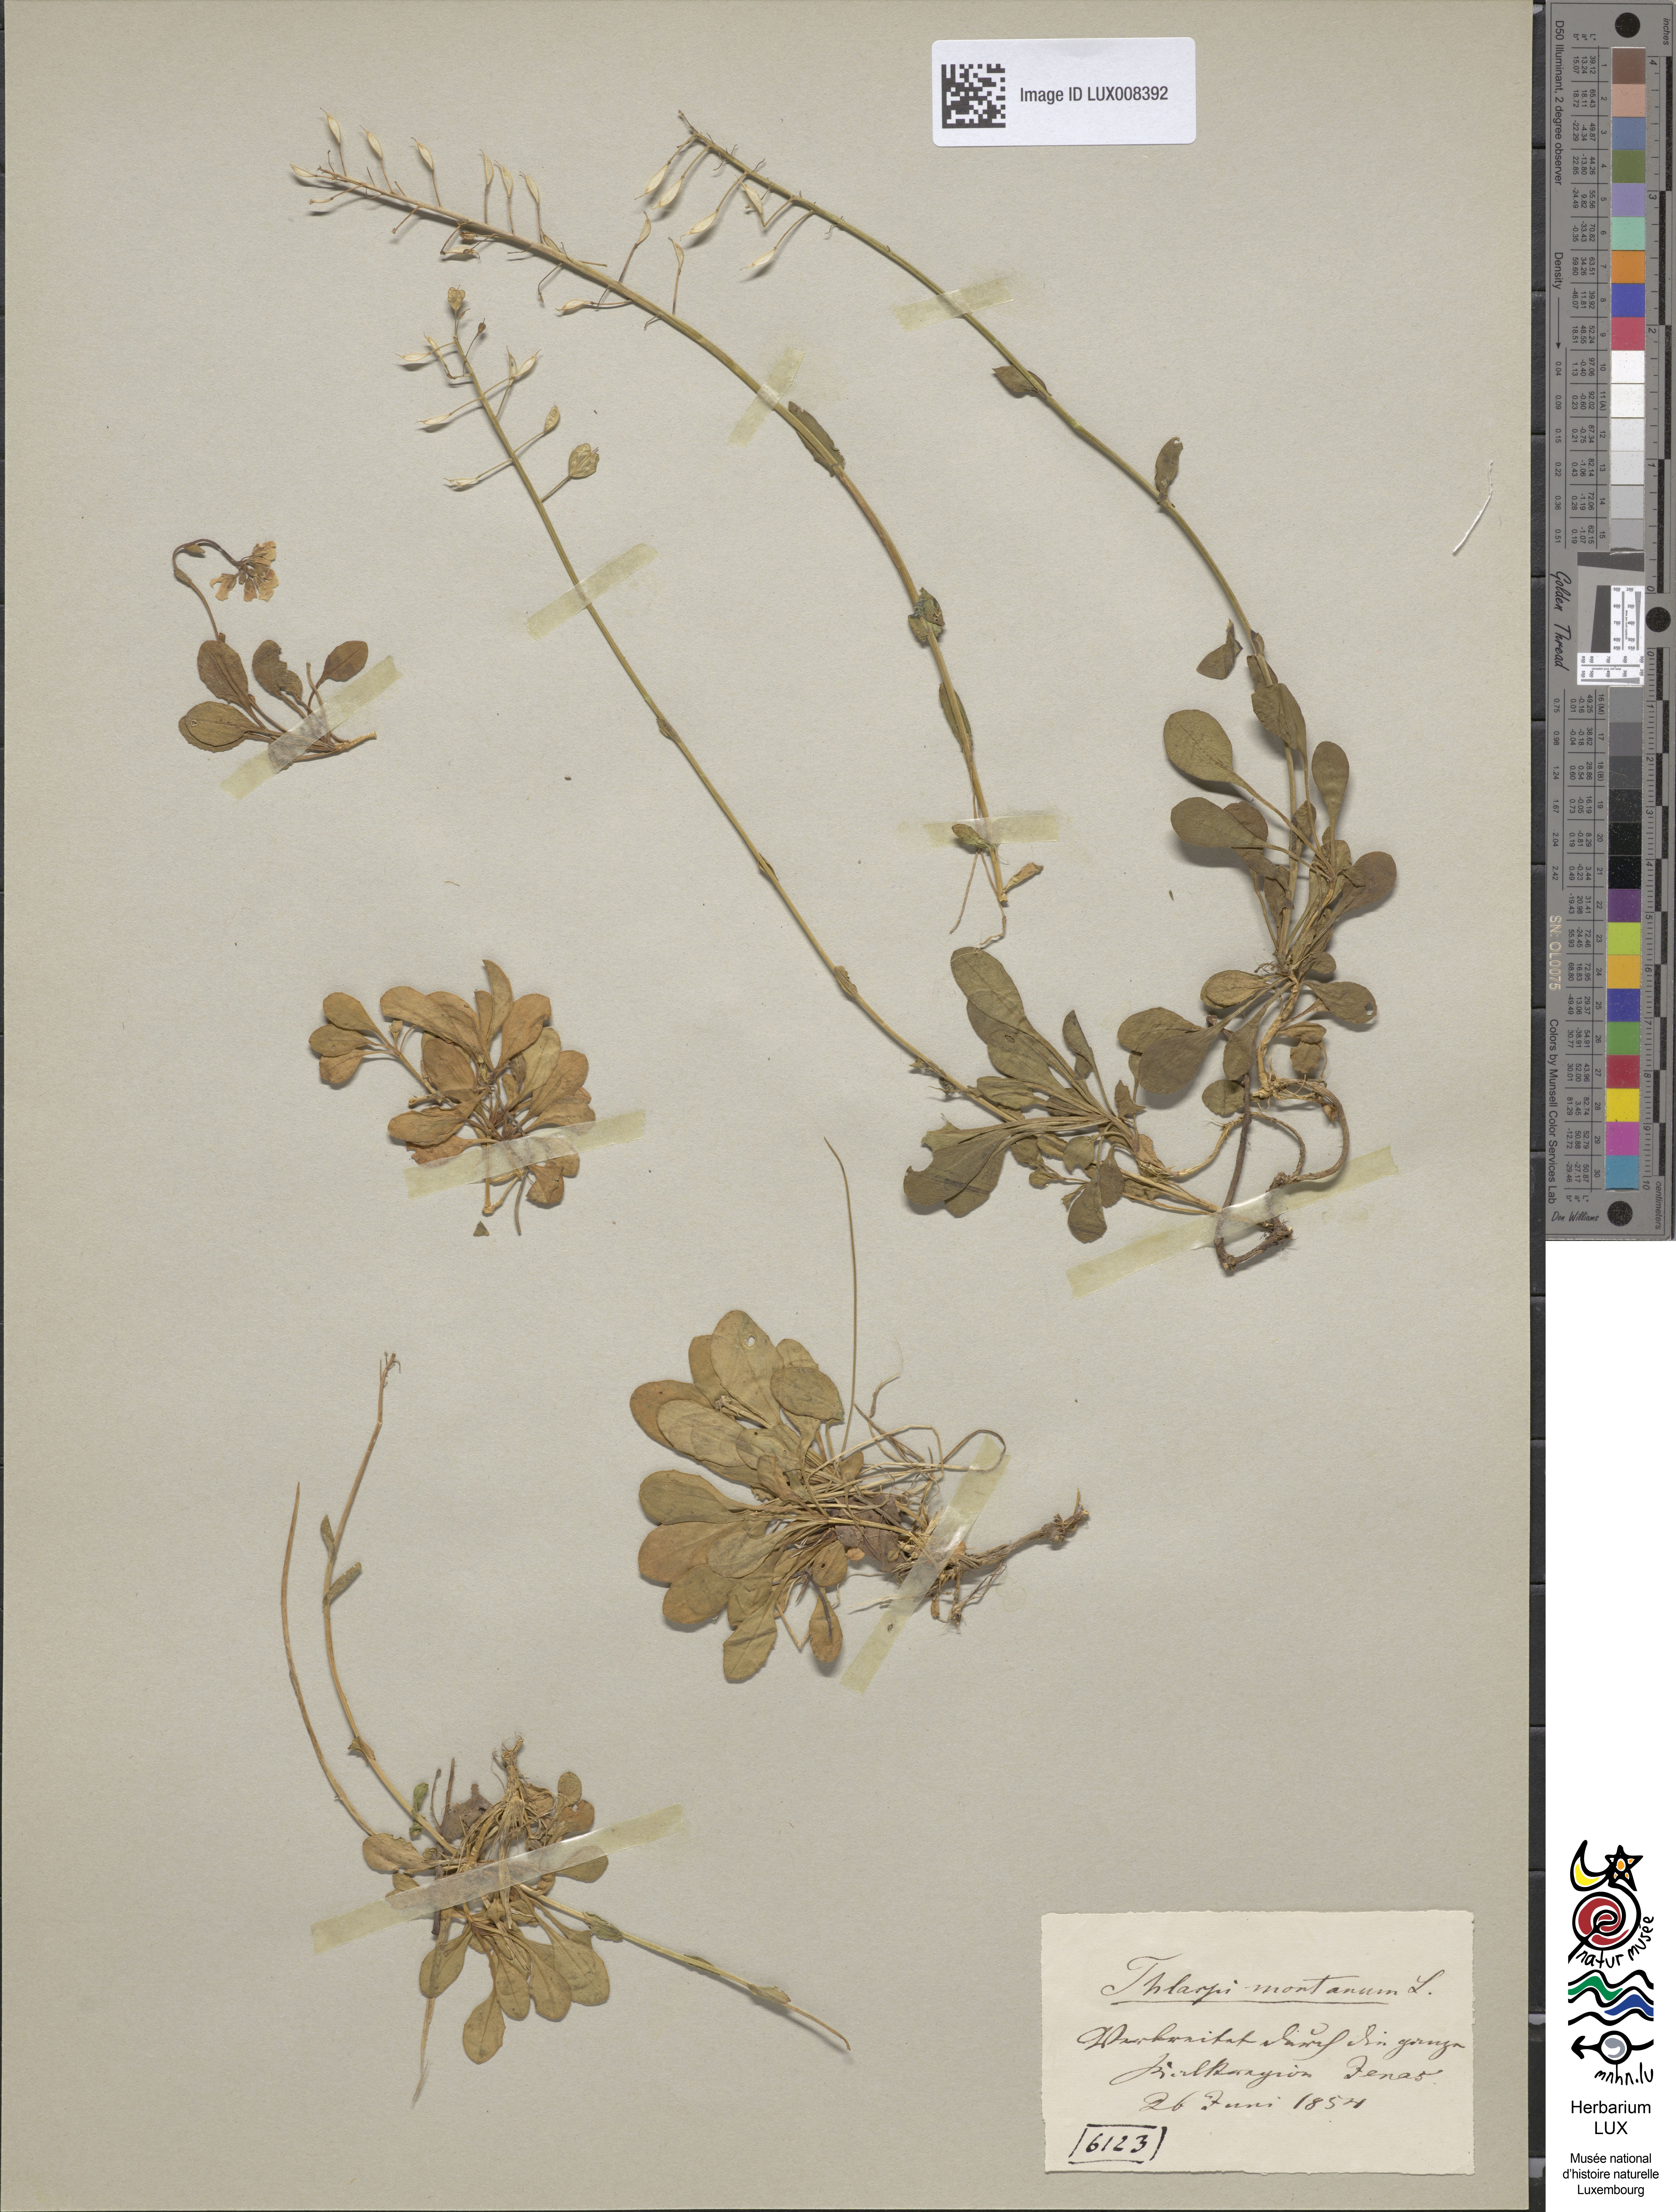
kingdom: Plantae
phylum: Tracheophyta
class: Magnoliopsida
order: Brassicales
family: Brassicaceae
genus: Noccaea
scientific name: Noccaea montana
